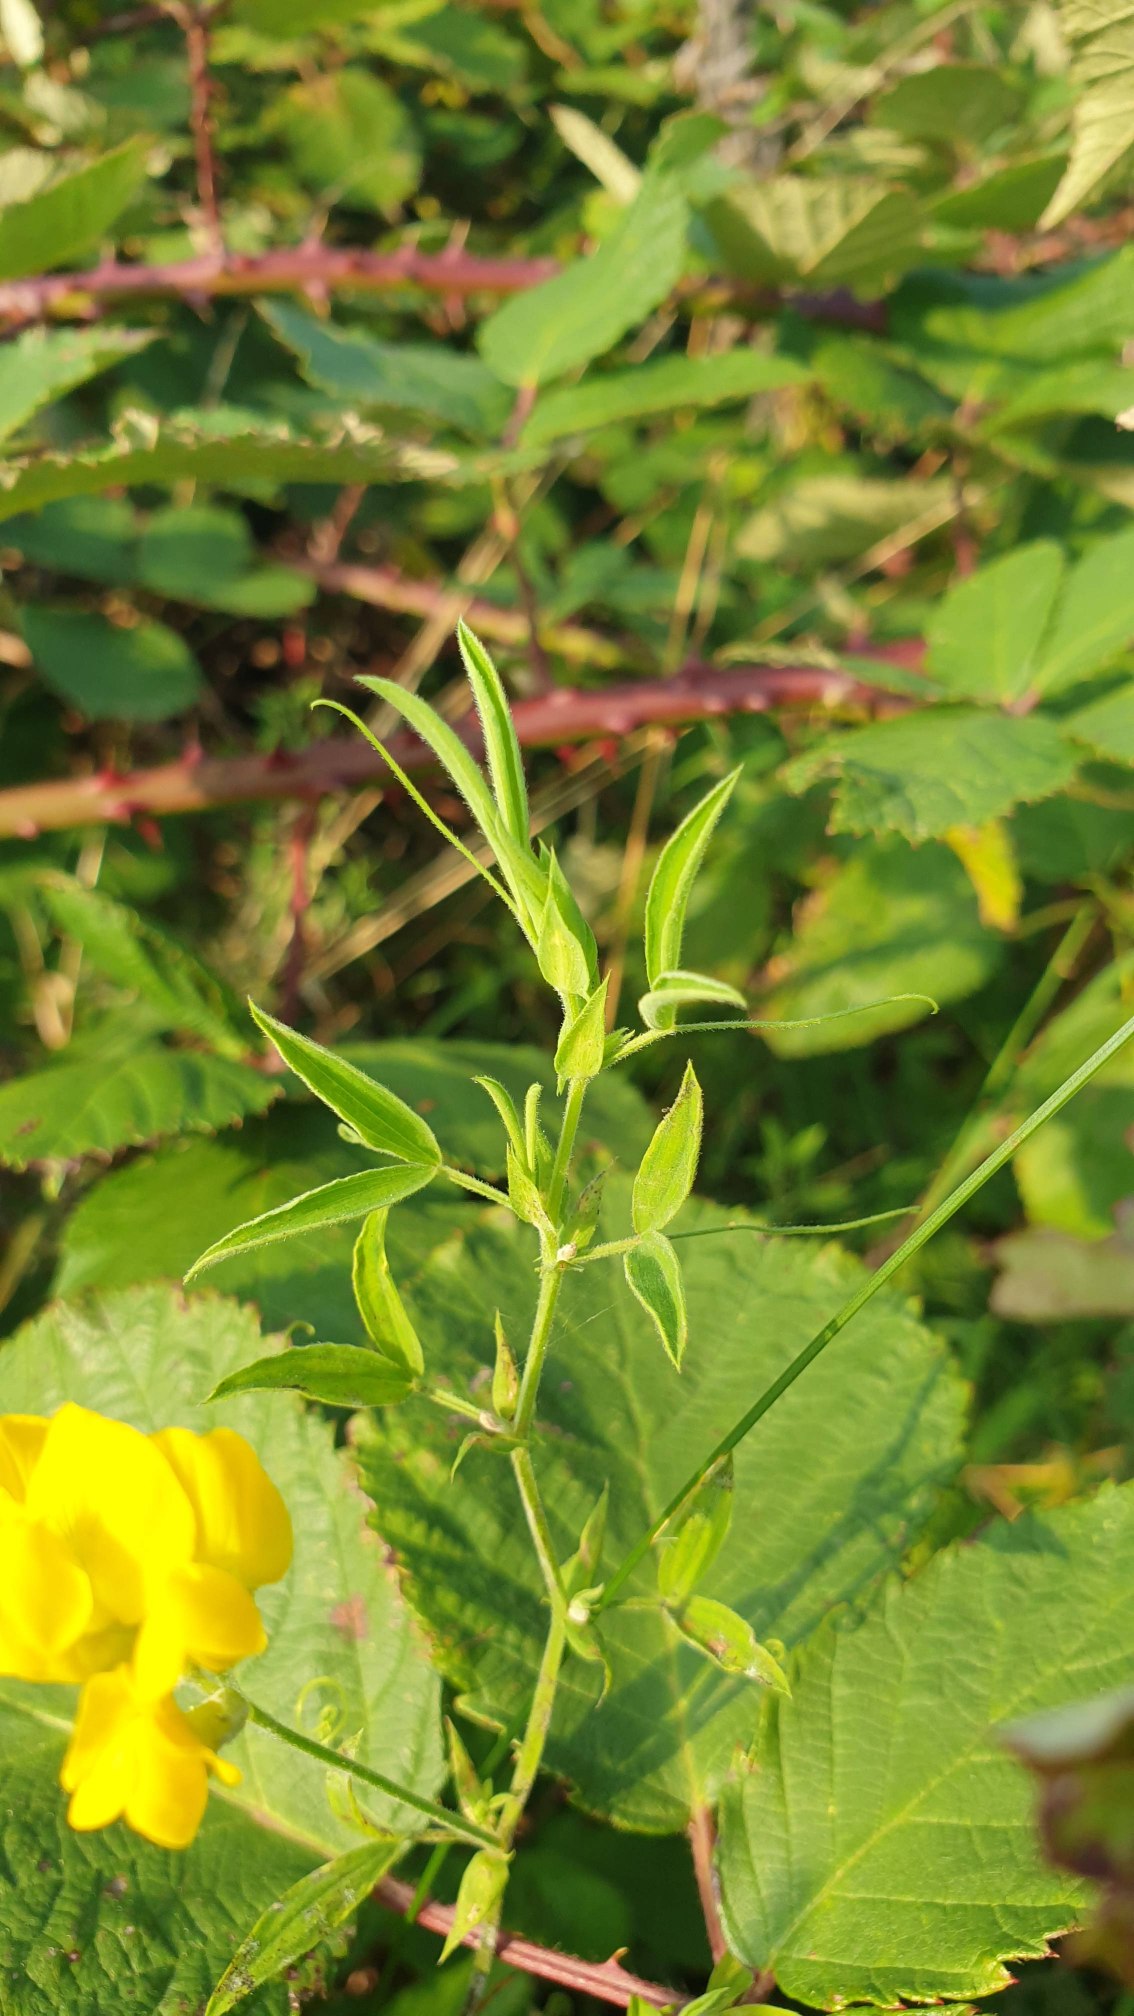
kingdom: Plantae
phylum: Tracheophyta
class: Magnoliopsida
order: Fabales
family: Fabaceae
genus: Lathyrus
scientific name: Lathyrus pratensis
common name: Gul fladbælg
